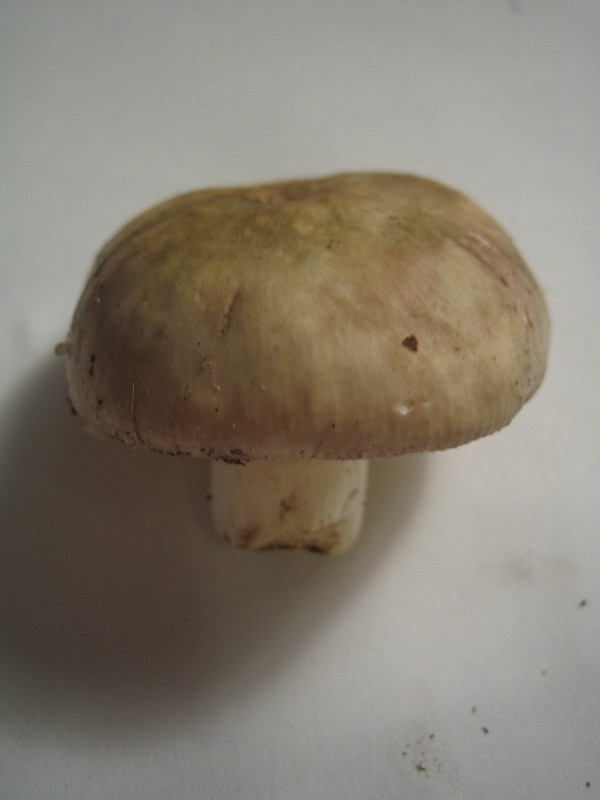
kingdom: Fungi
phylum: Basidiomycota
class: Agaricomycetes
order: Russulales
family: Russulaceae
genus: Russula
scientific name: Russula recondita
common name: mild kam-skørhat
